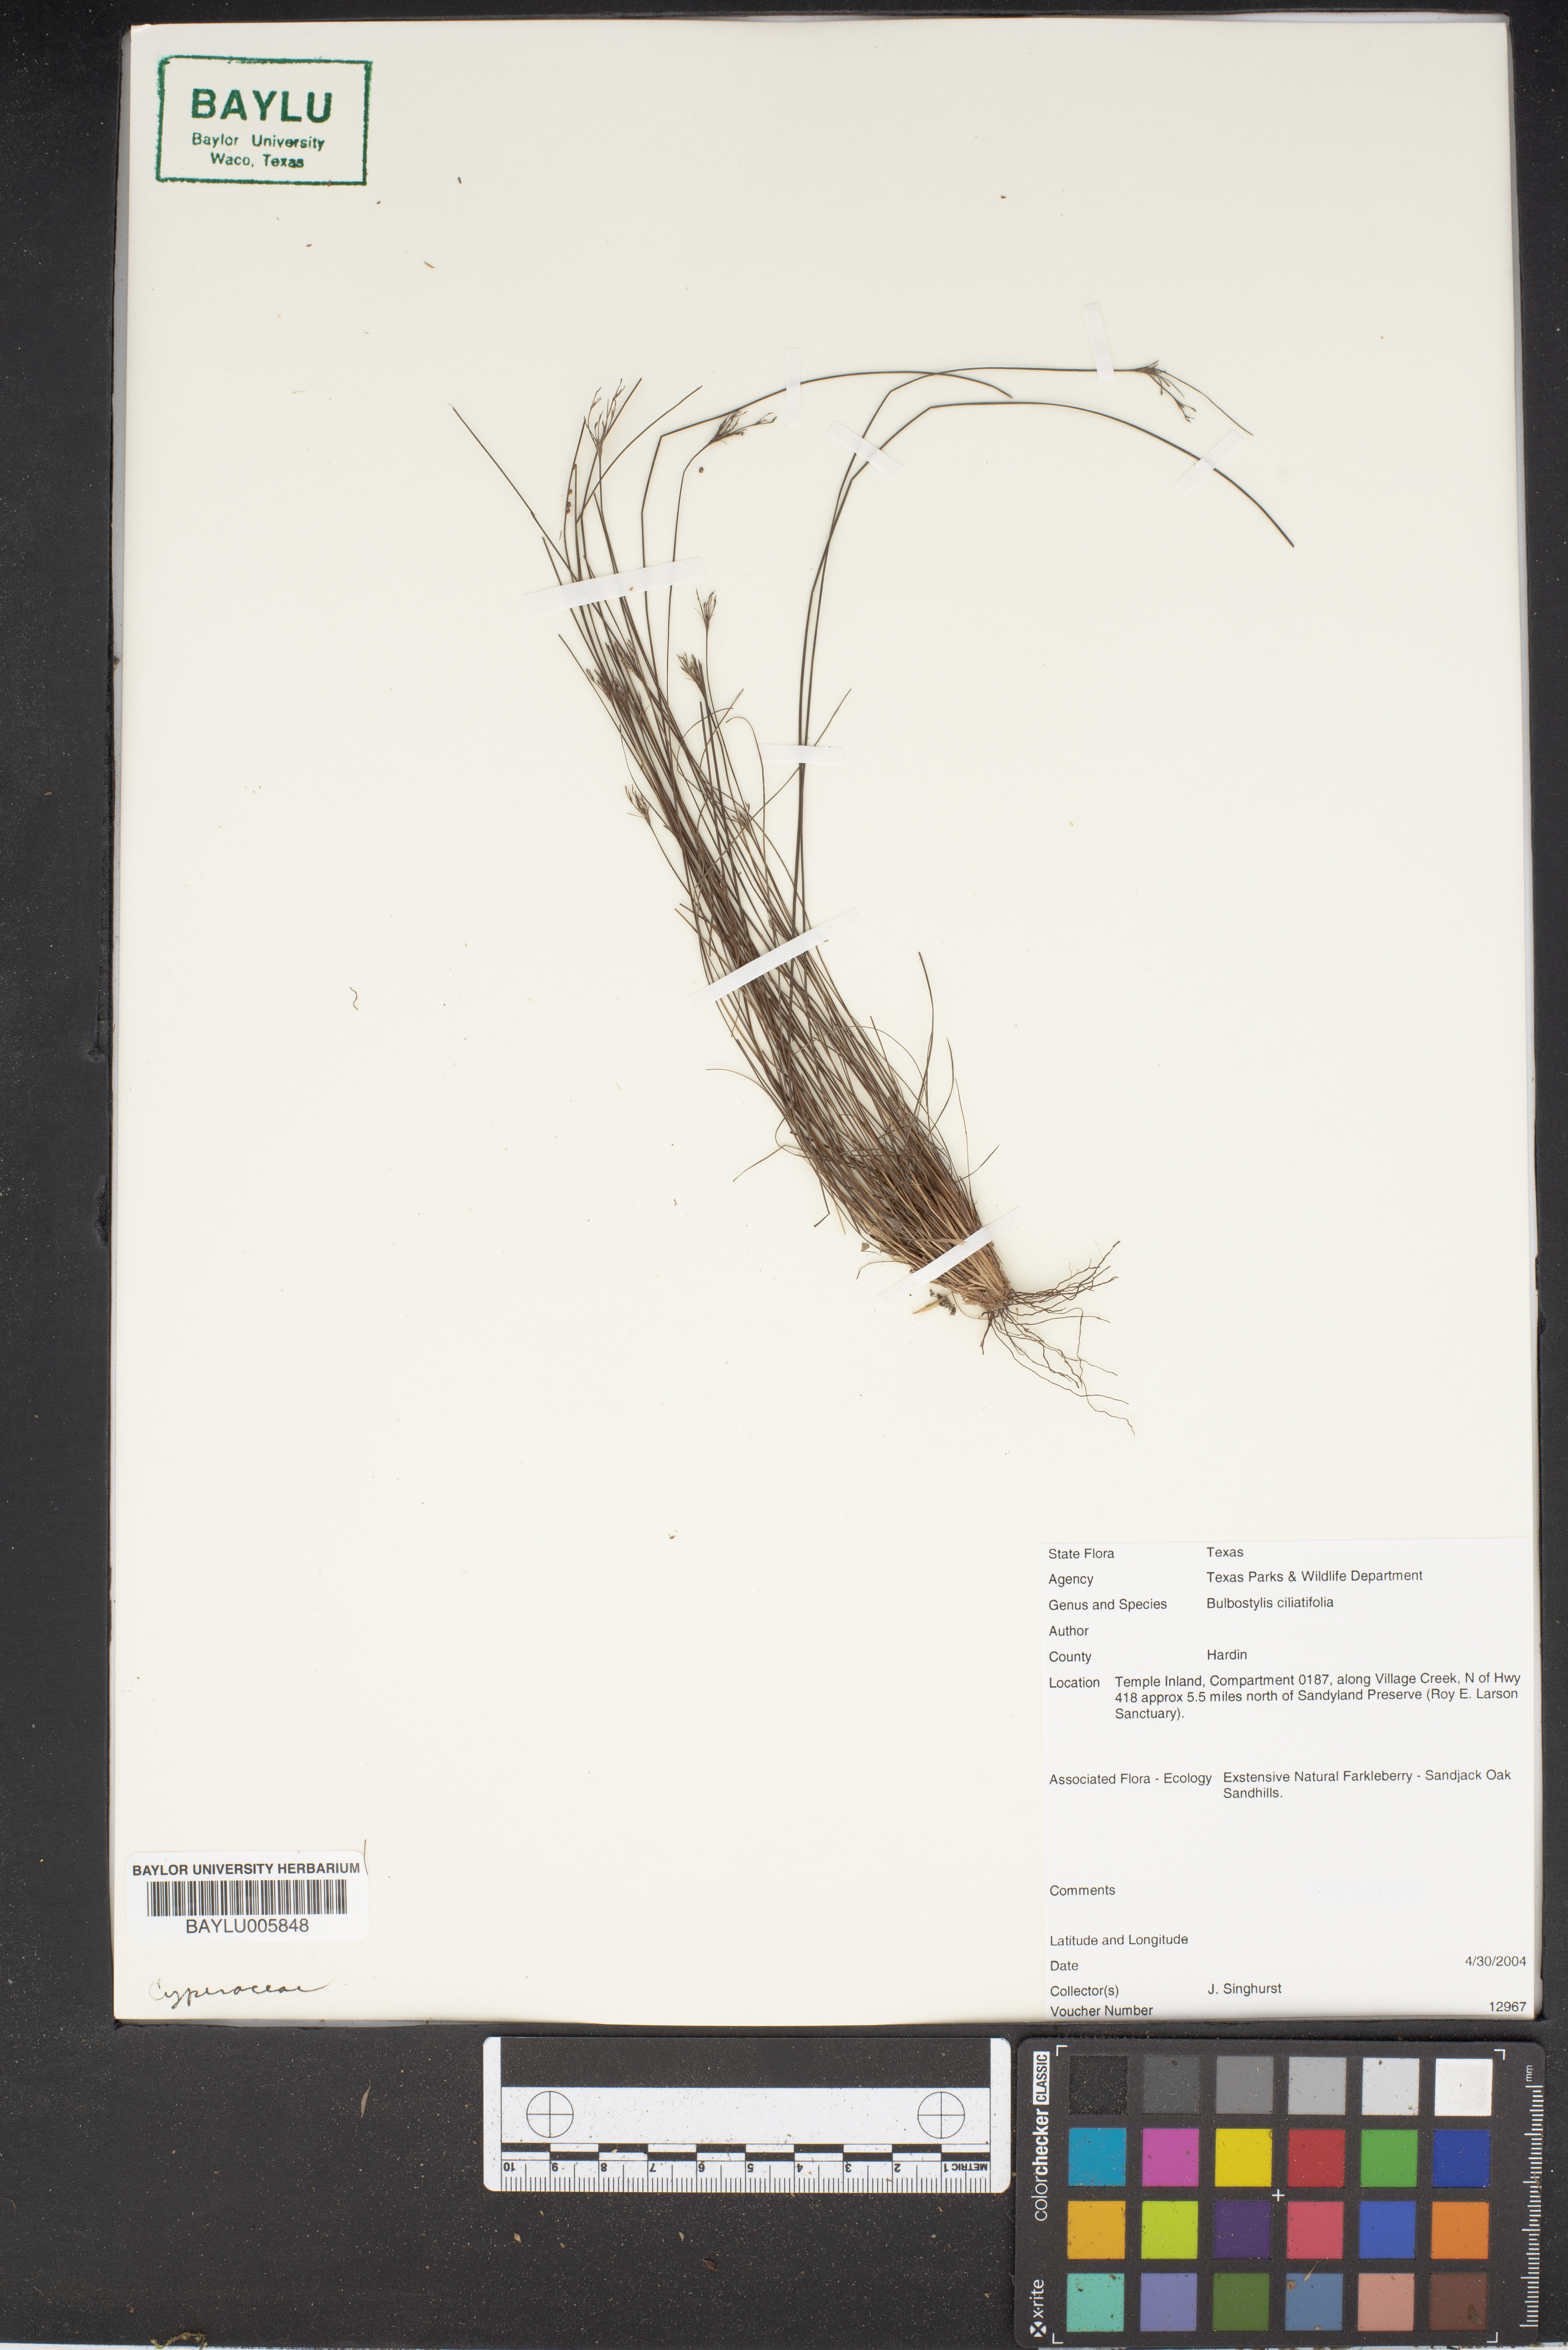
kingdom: Plantae
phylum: Tracheophyta
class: Liliopsida
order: Poales
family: Cyperaceae
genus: Bulbostylis
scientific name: Bulbostylis ciliatifolia
